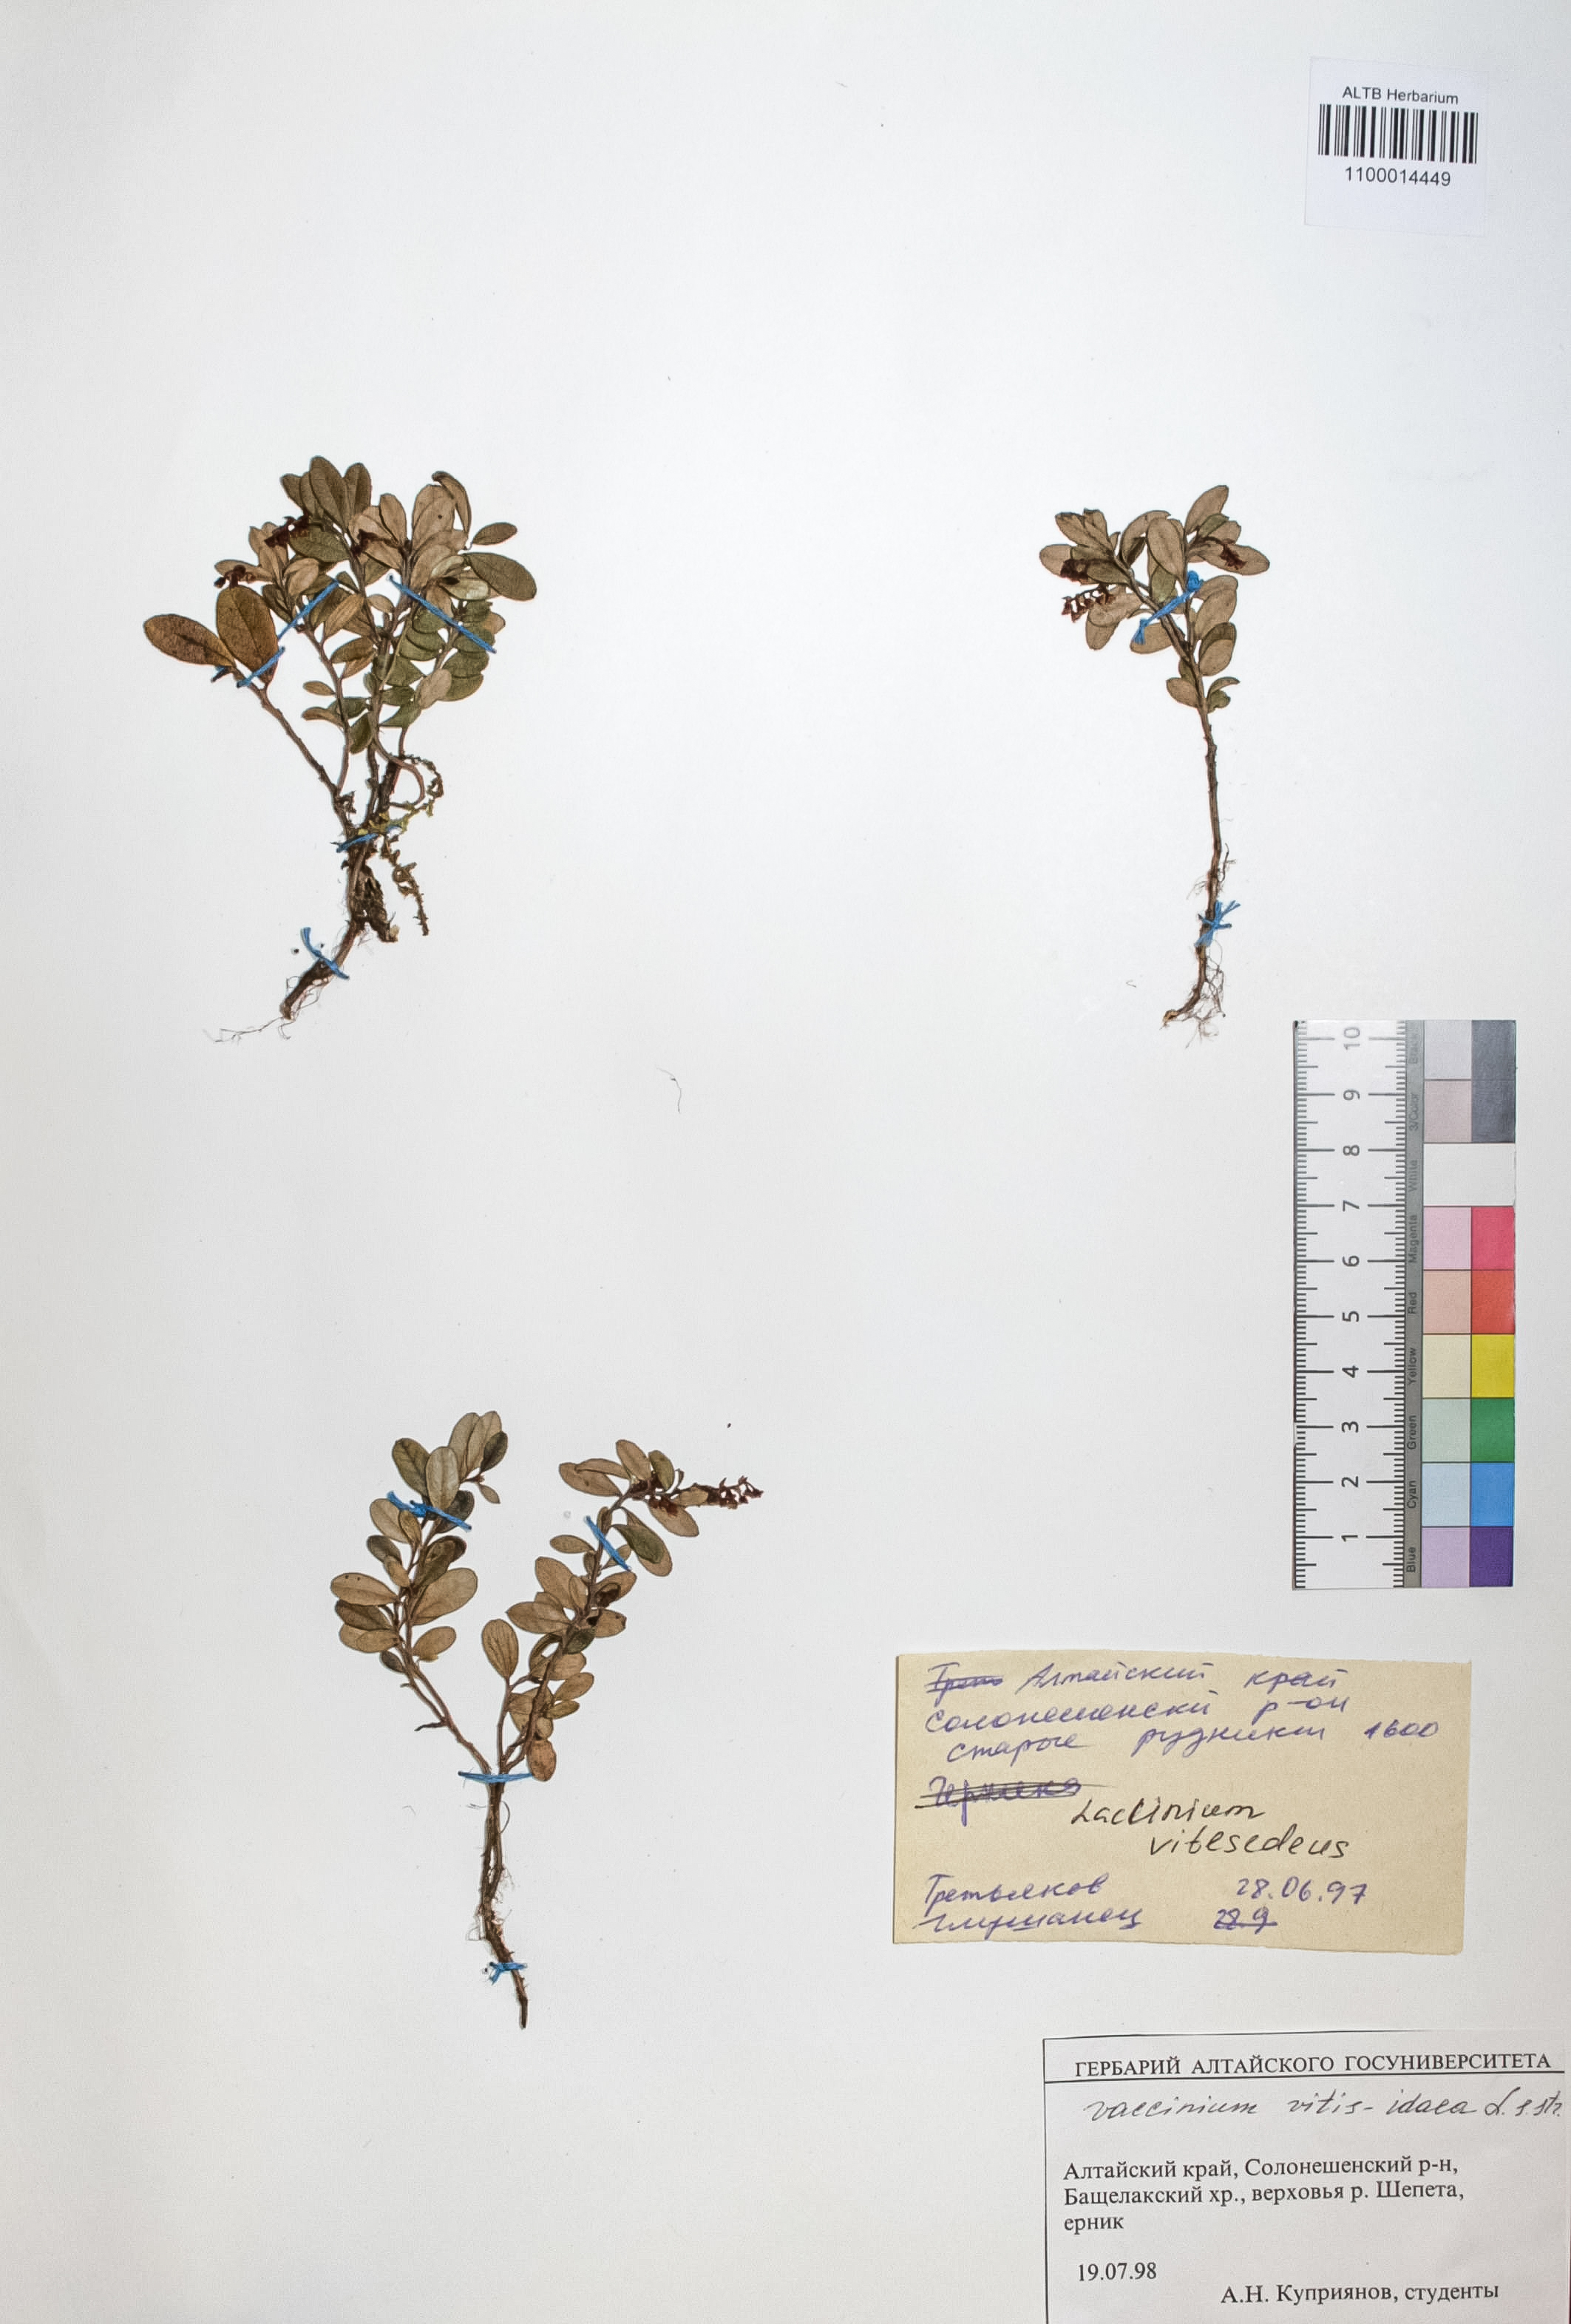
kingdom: Plantae
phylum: Tracheophyta
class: Magnoliopsida
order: Ericales
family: Ericaceae
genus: Vaccinium
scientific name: Vaccinium vitis-idaea
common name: Cowberry
